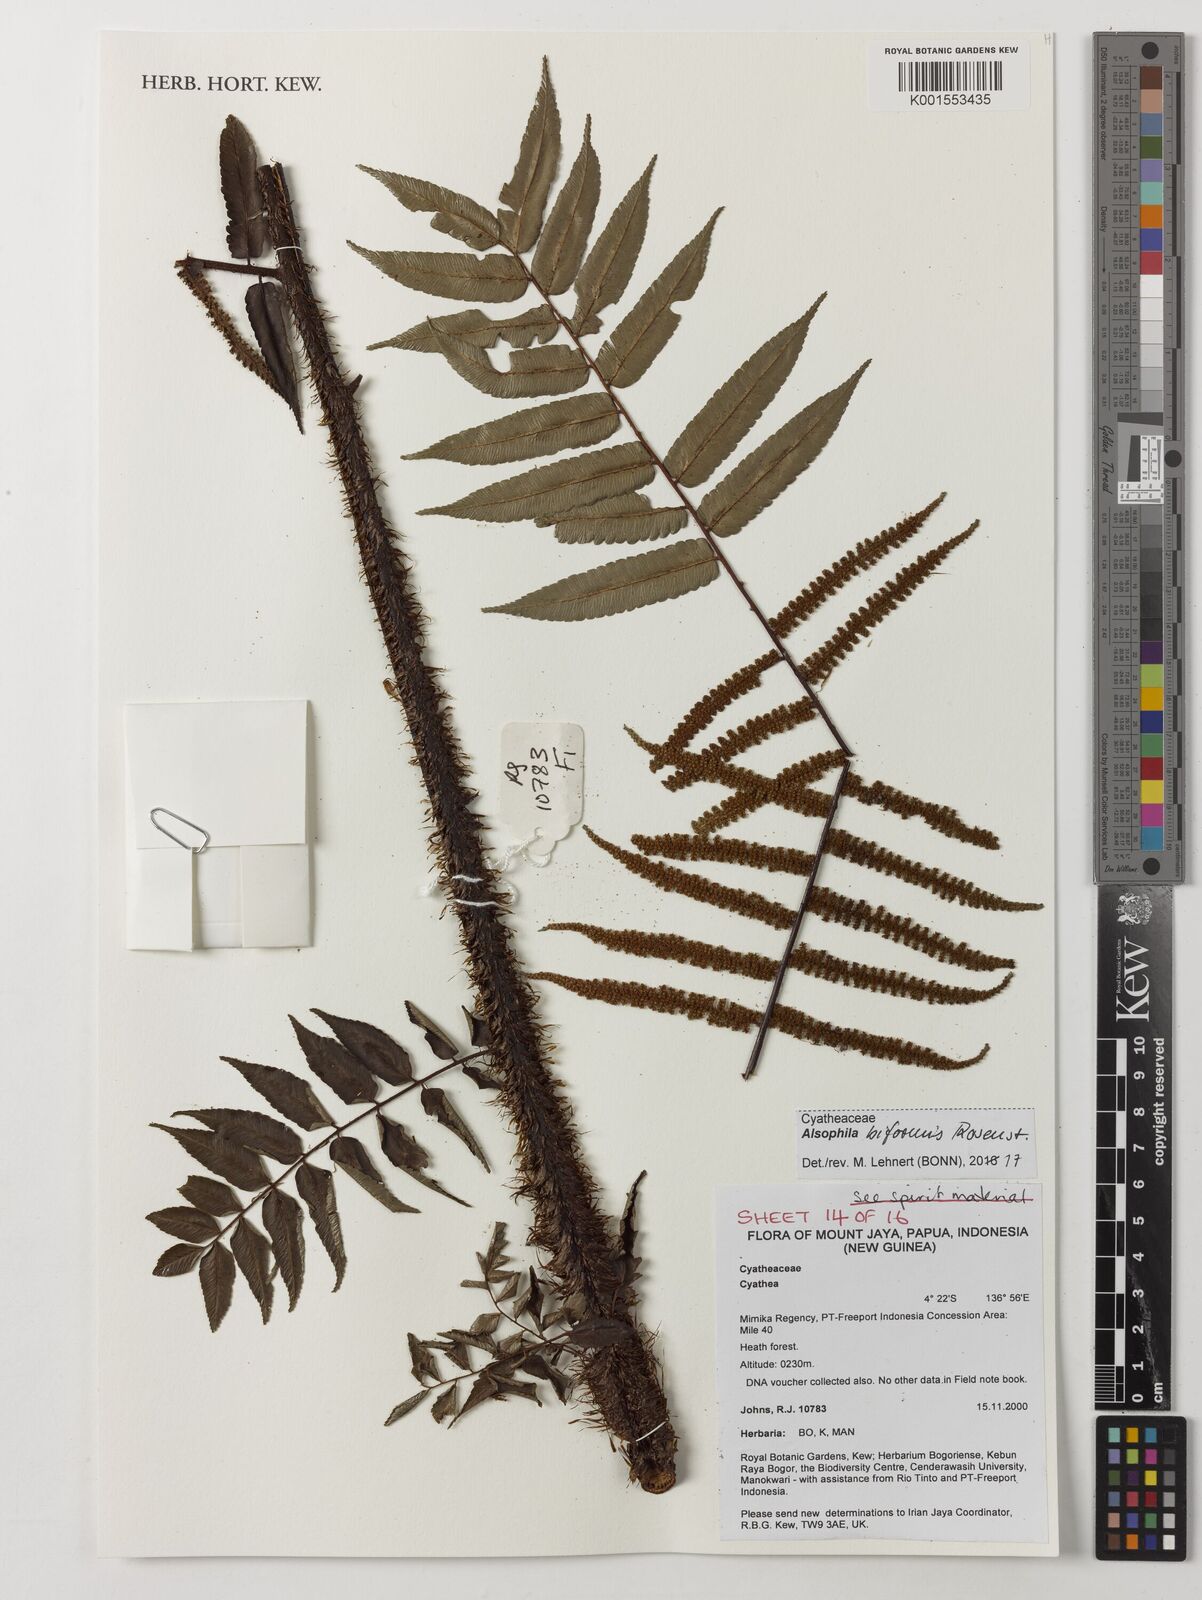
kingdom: Plantae
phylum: Tracheophyta
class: Polypodiopsida
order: Cyatheales
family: Cyatheaceae
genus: Gymnosphaera
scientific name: Gymnosphaera biformis
